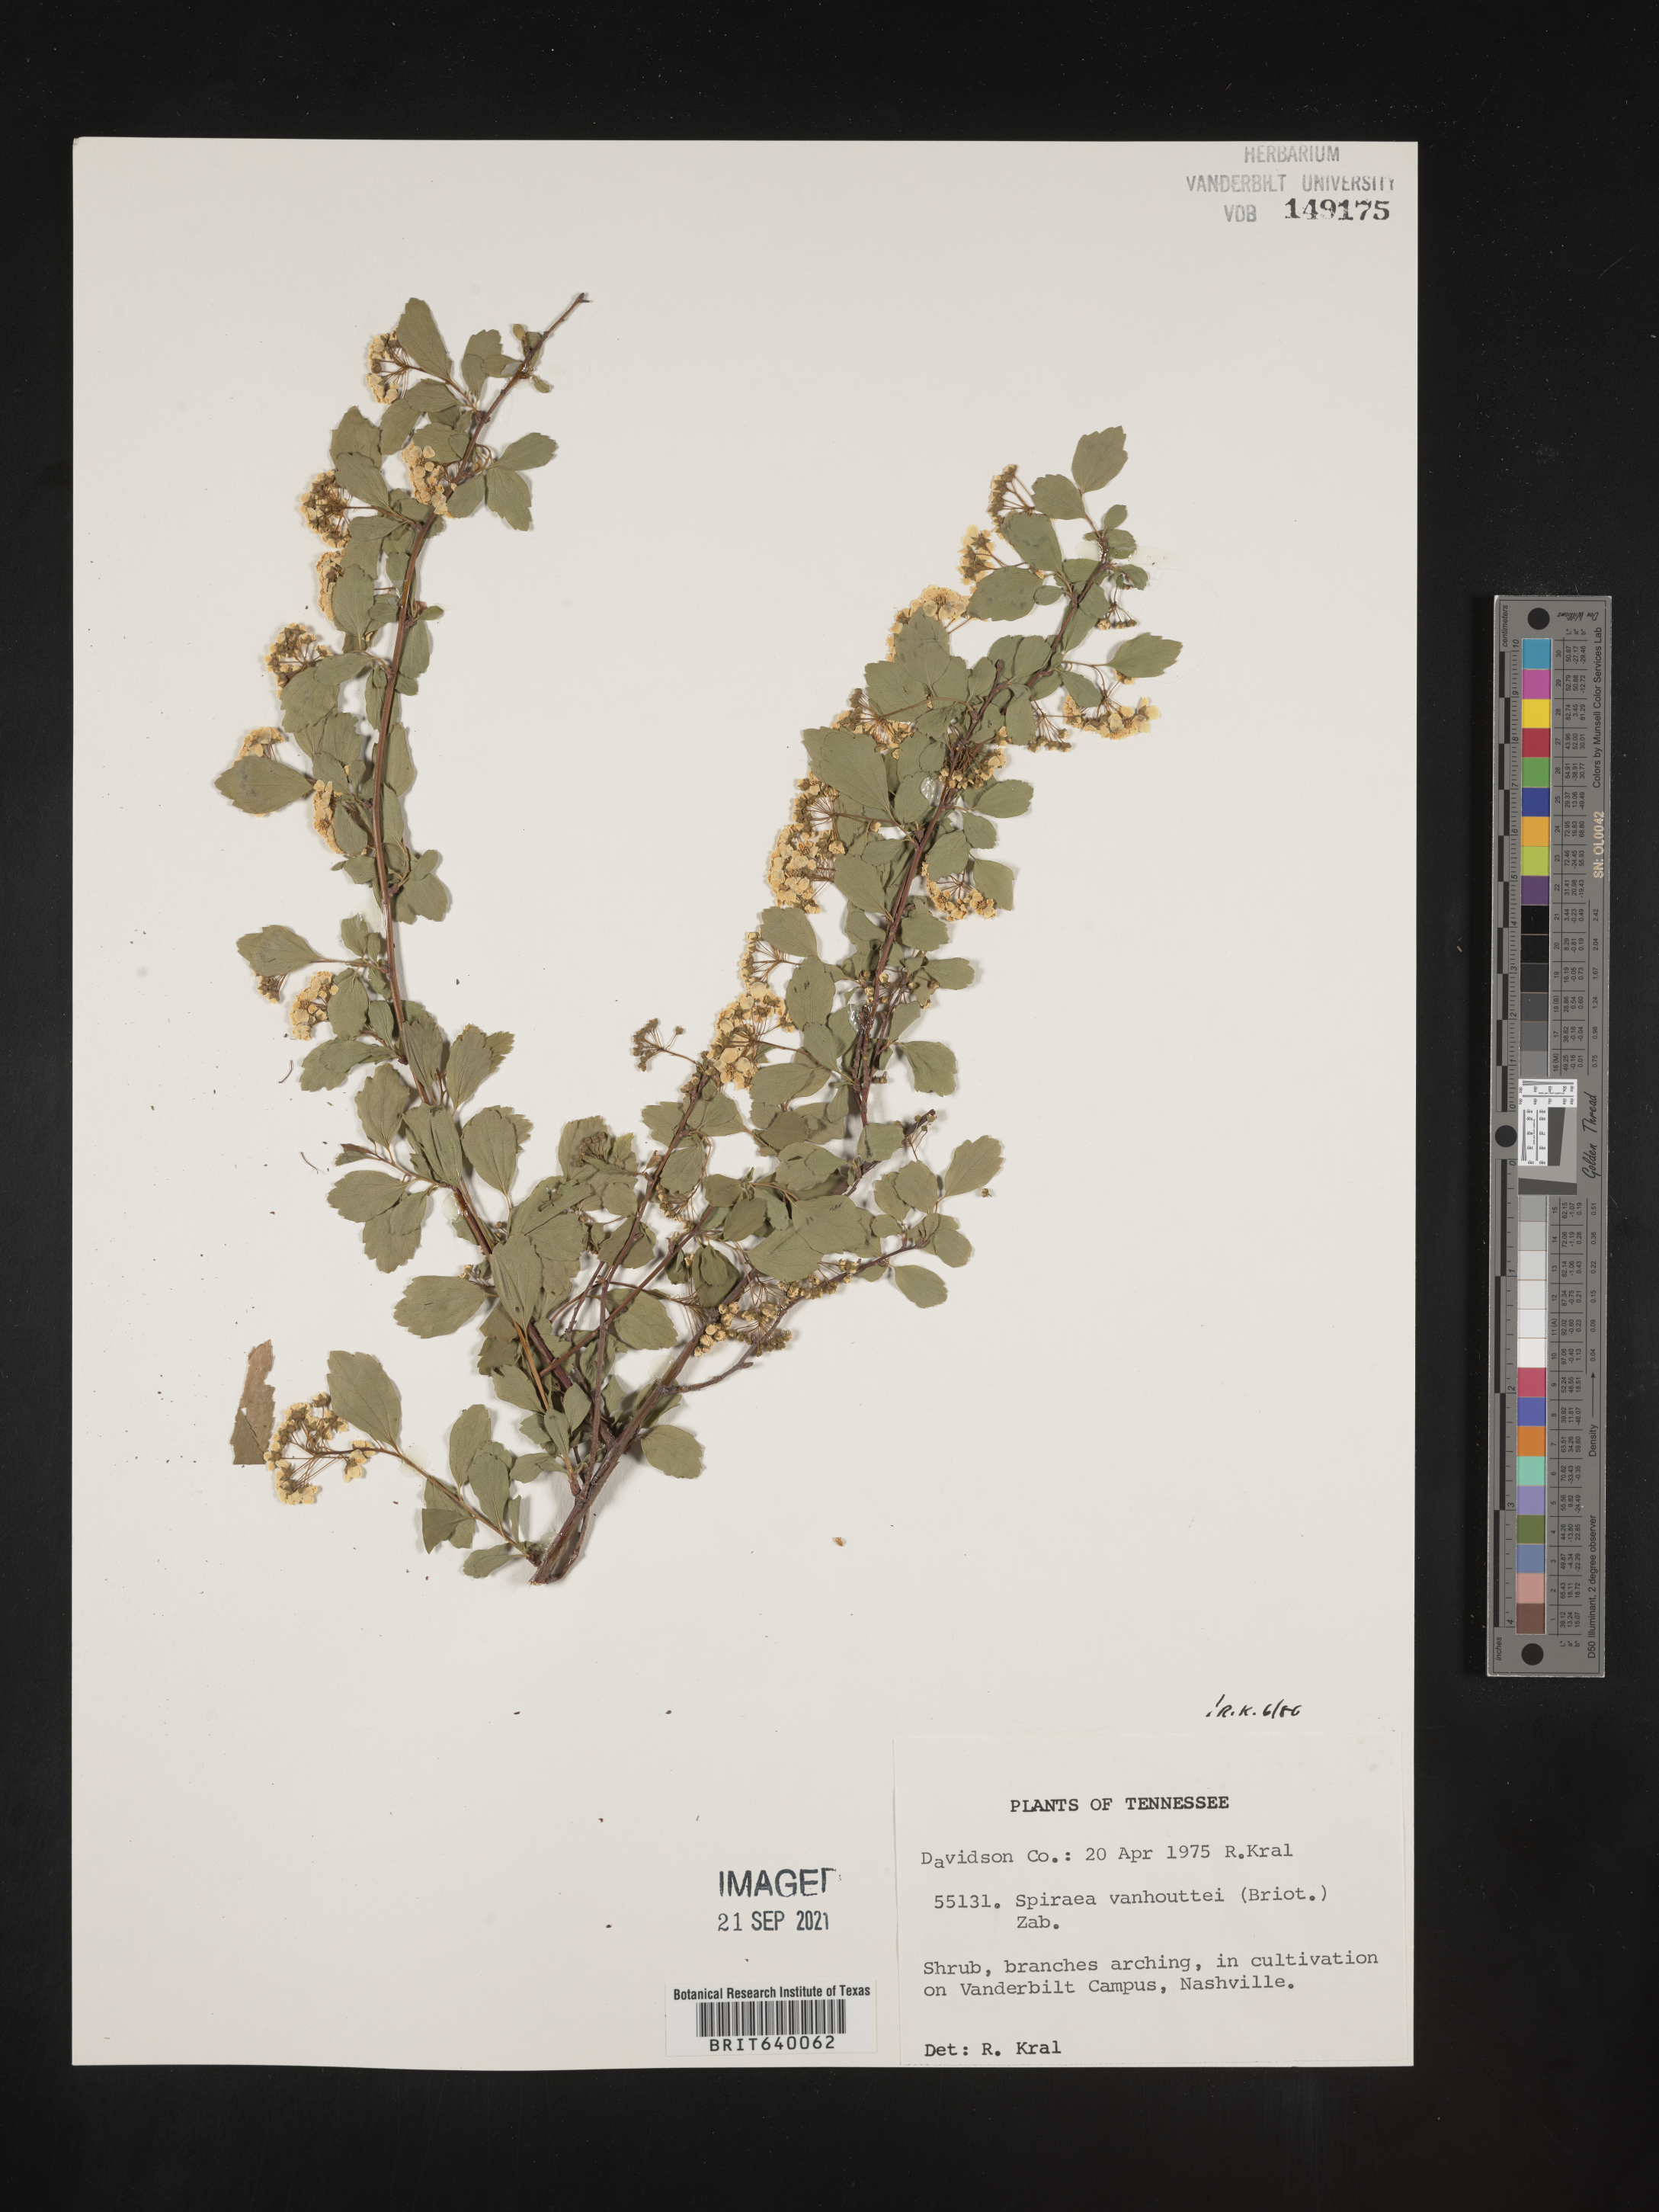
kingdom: Plantae
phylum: Tracheophyta
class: Magnoliopsida
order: Rosales
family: Rosaceae
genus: Spiraea
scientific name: Spiraea
